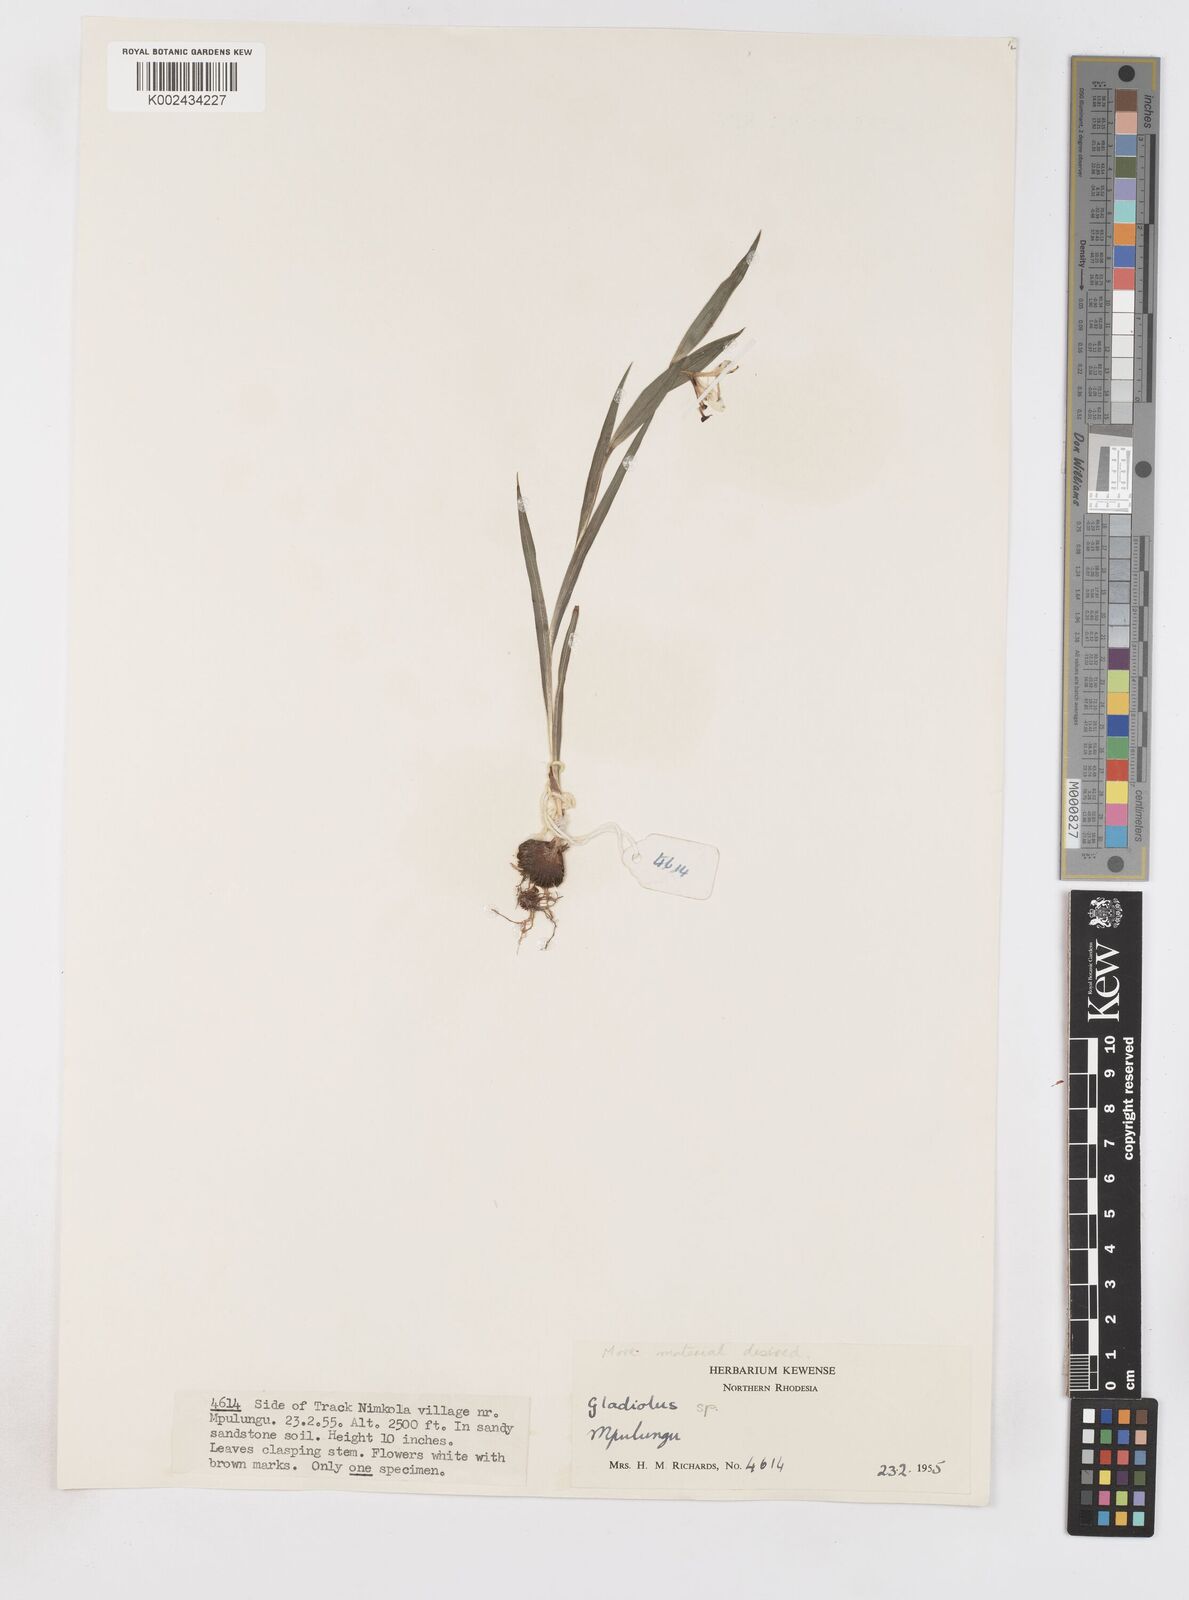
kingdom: Plantae
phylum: Tracheophyta
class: Liliopsida
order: Asparagales
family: Iridaceae
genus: Gladiolus
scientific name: Gladiolus gregarius
